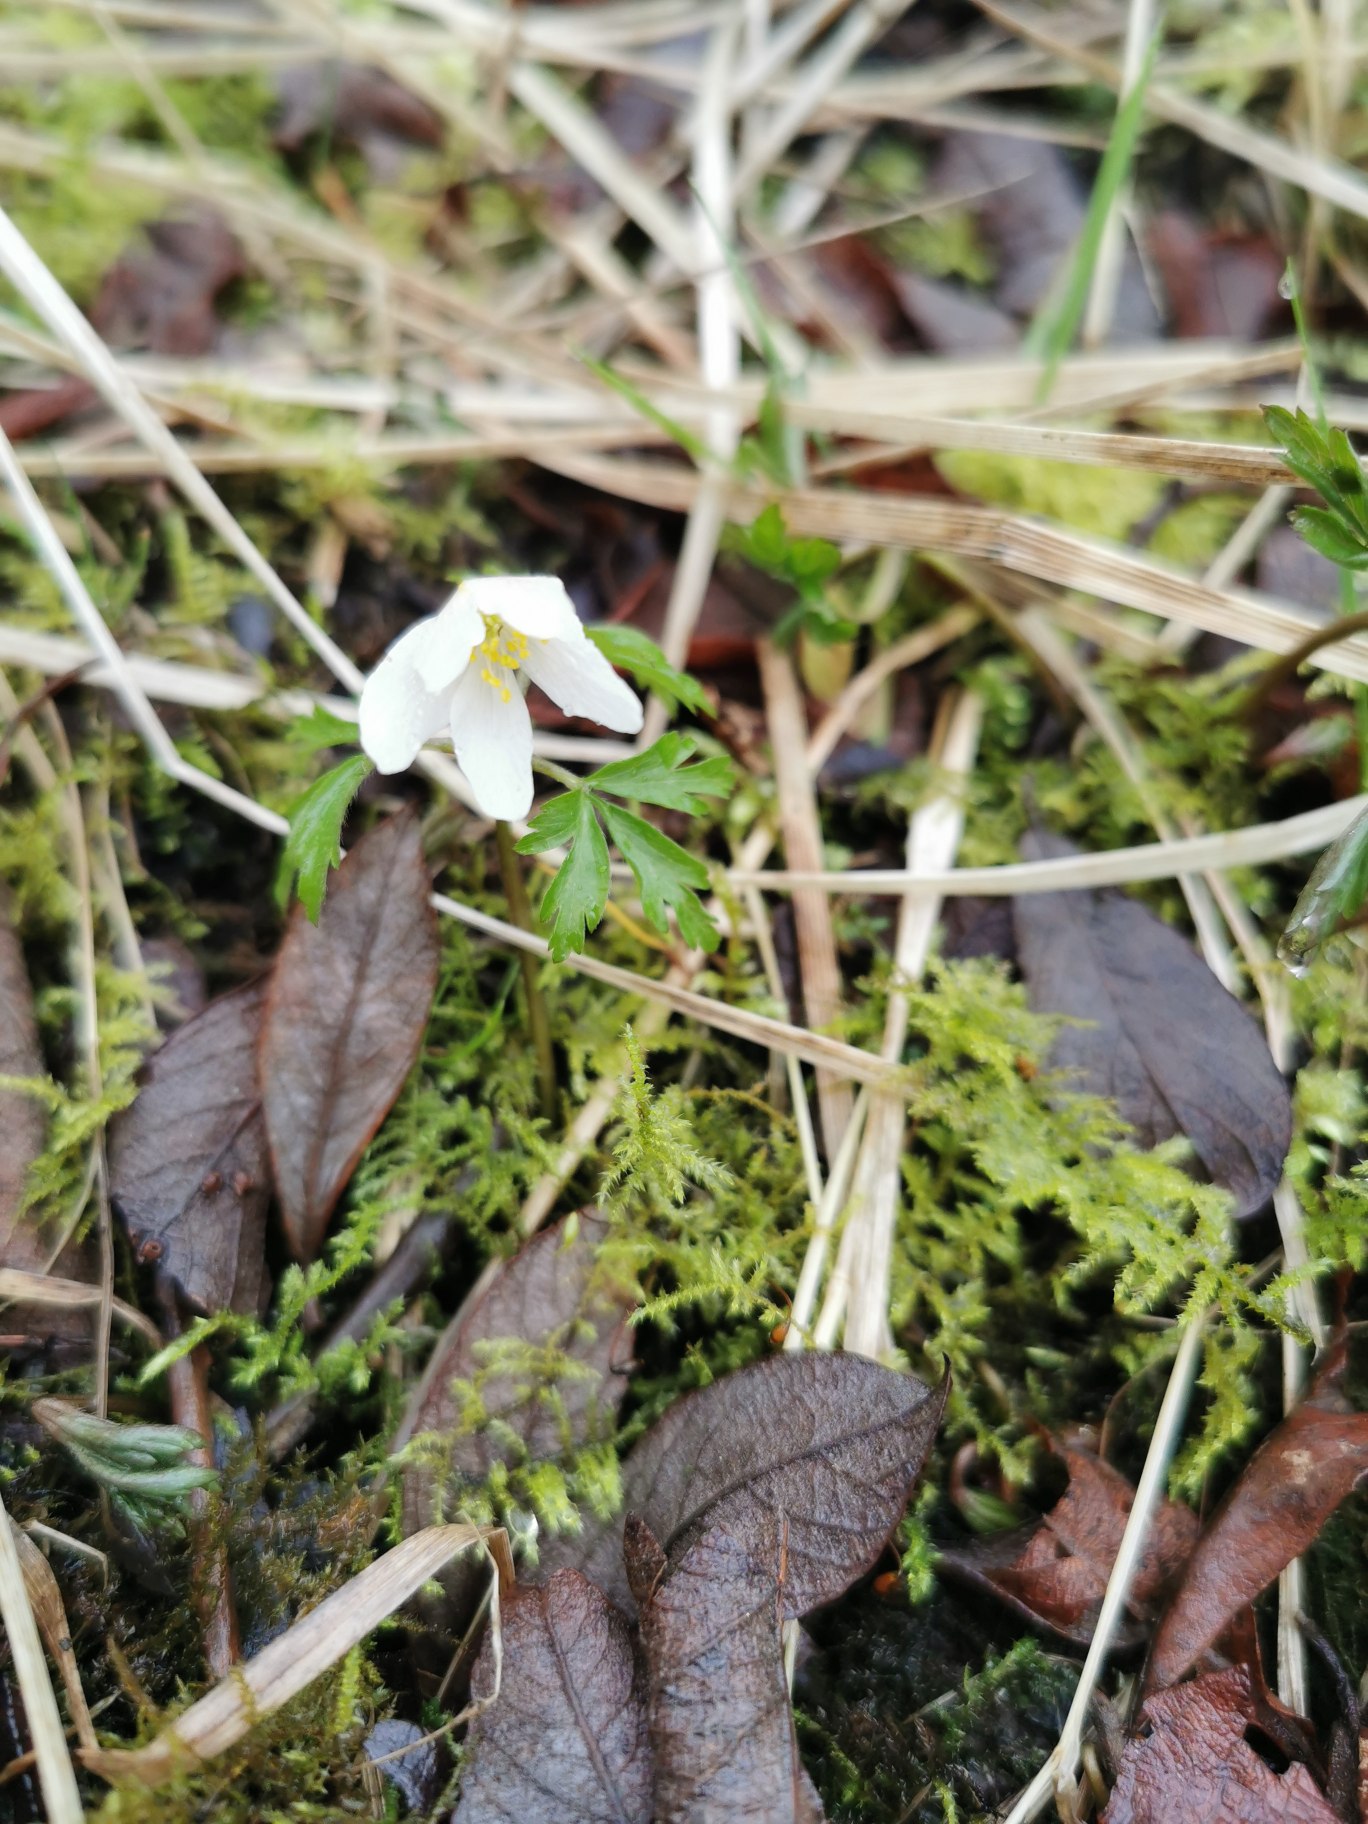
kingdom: Plantae
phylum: Tracheophyta
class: Magnoliopsida
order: Ranunculales
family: Ranunculaceae
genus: Anemone
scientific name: Anemone nemorosa
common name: Hvid anemone
